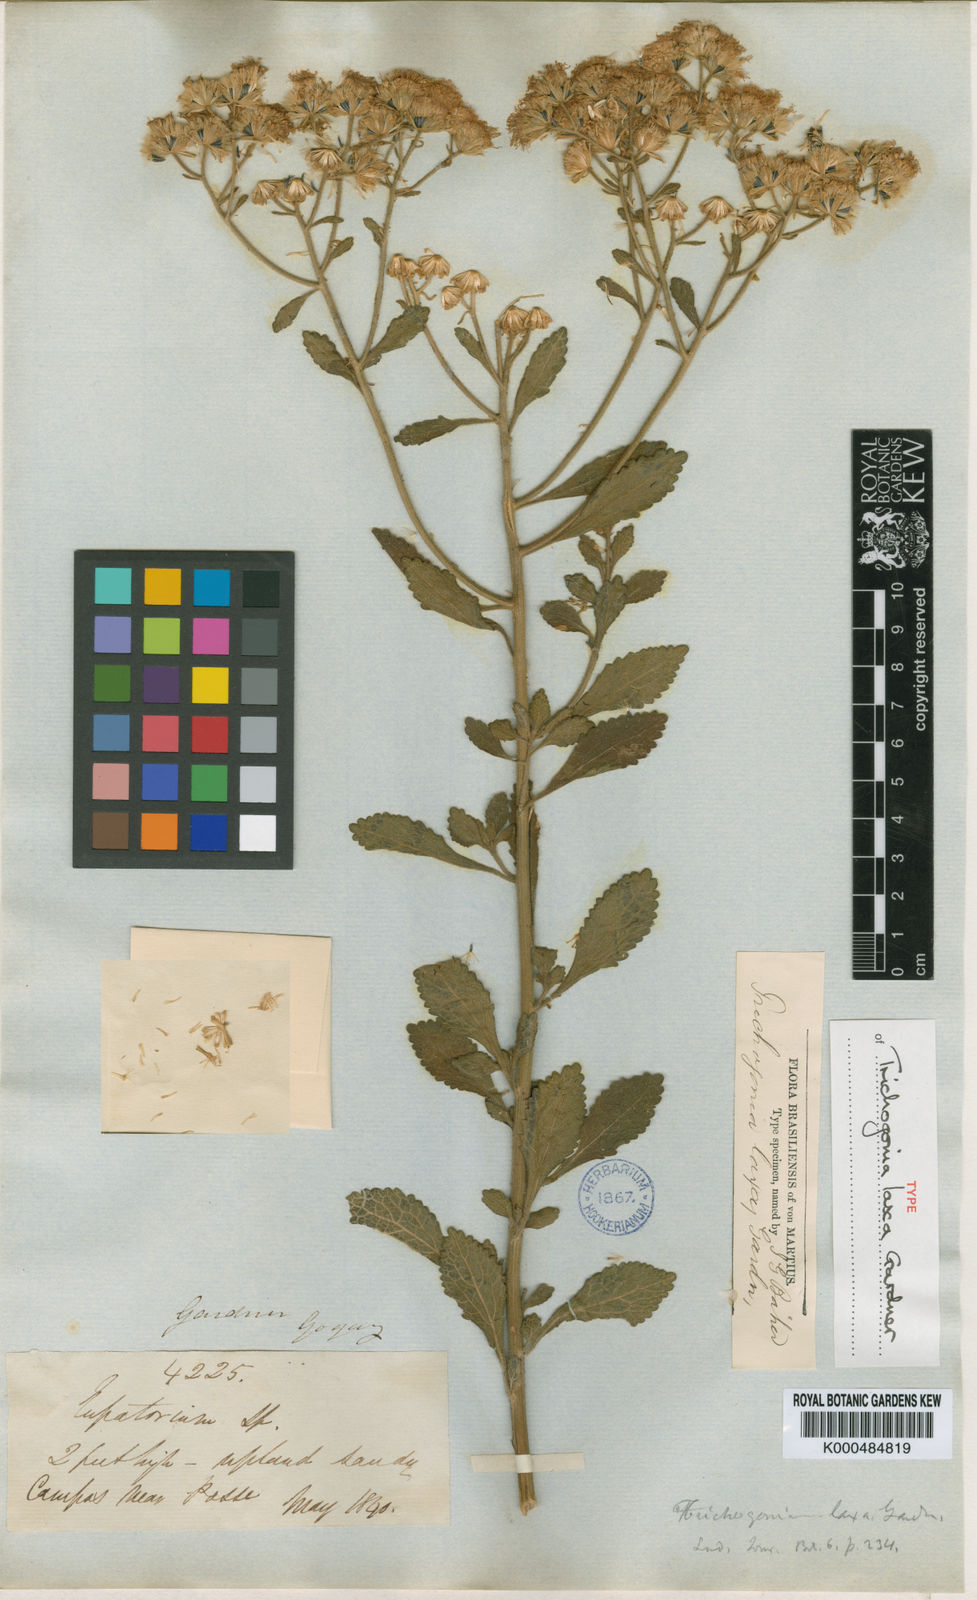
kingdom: Plantae
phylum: Tracheophyta
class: Magnoliopsida
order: Asterales
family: Asteraceae
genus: Trichogonia
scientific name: Trichogonia laxa
